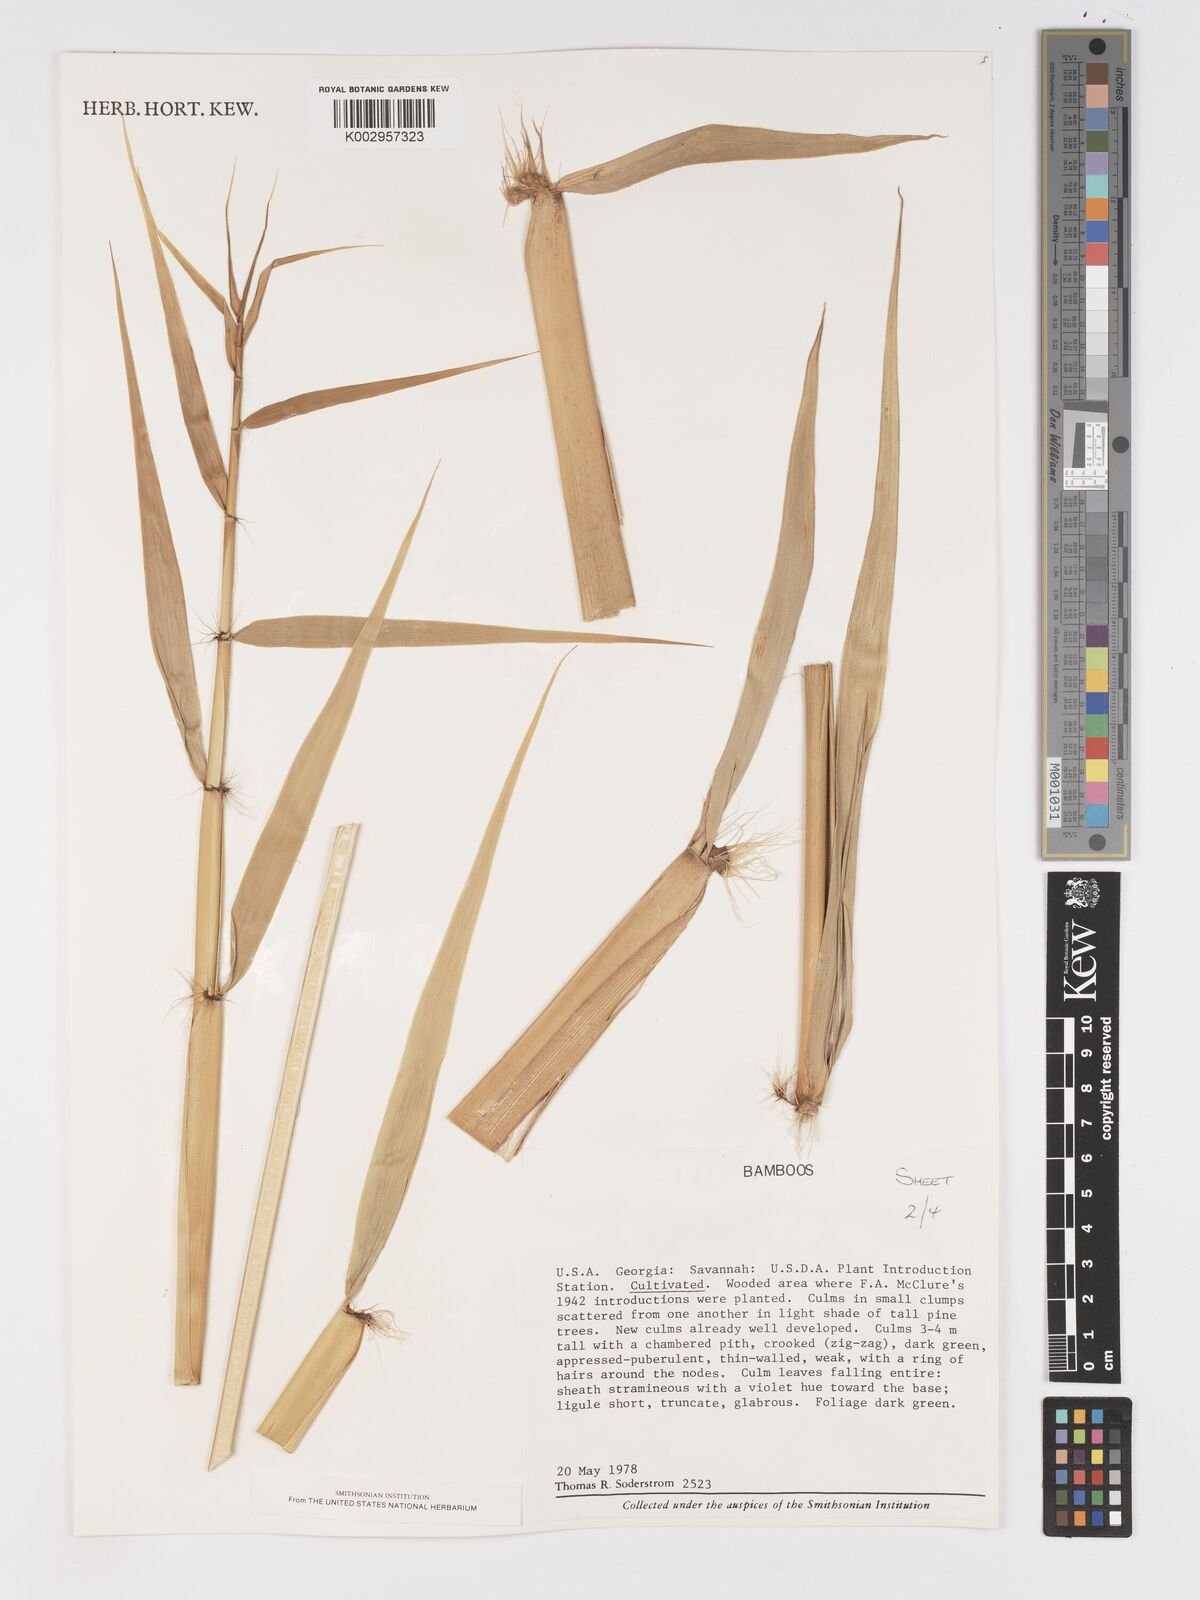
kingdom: Plantae
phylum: Tracheophyta
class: Liliopsida
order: Poales
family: Poaceae
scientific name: Poaceae
